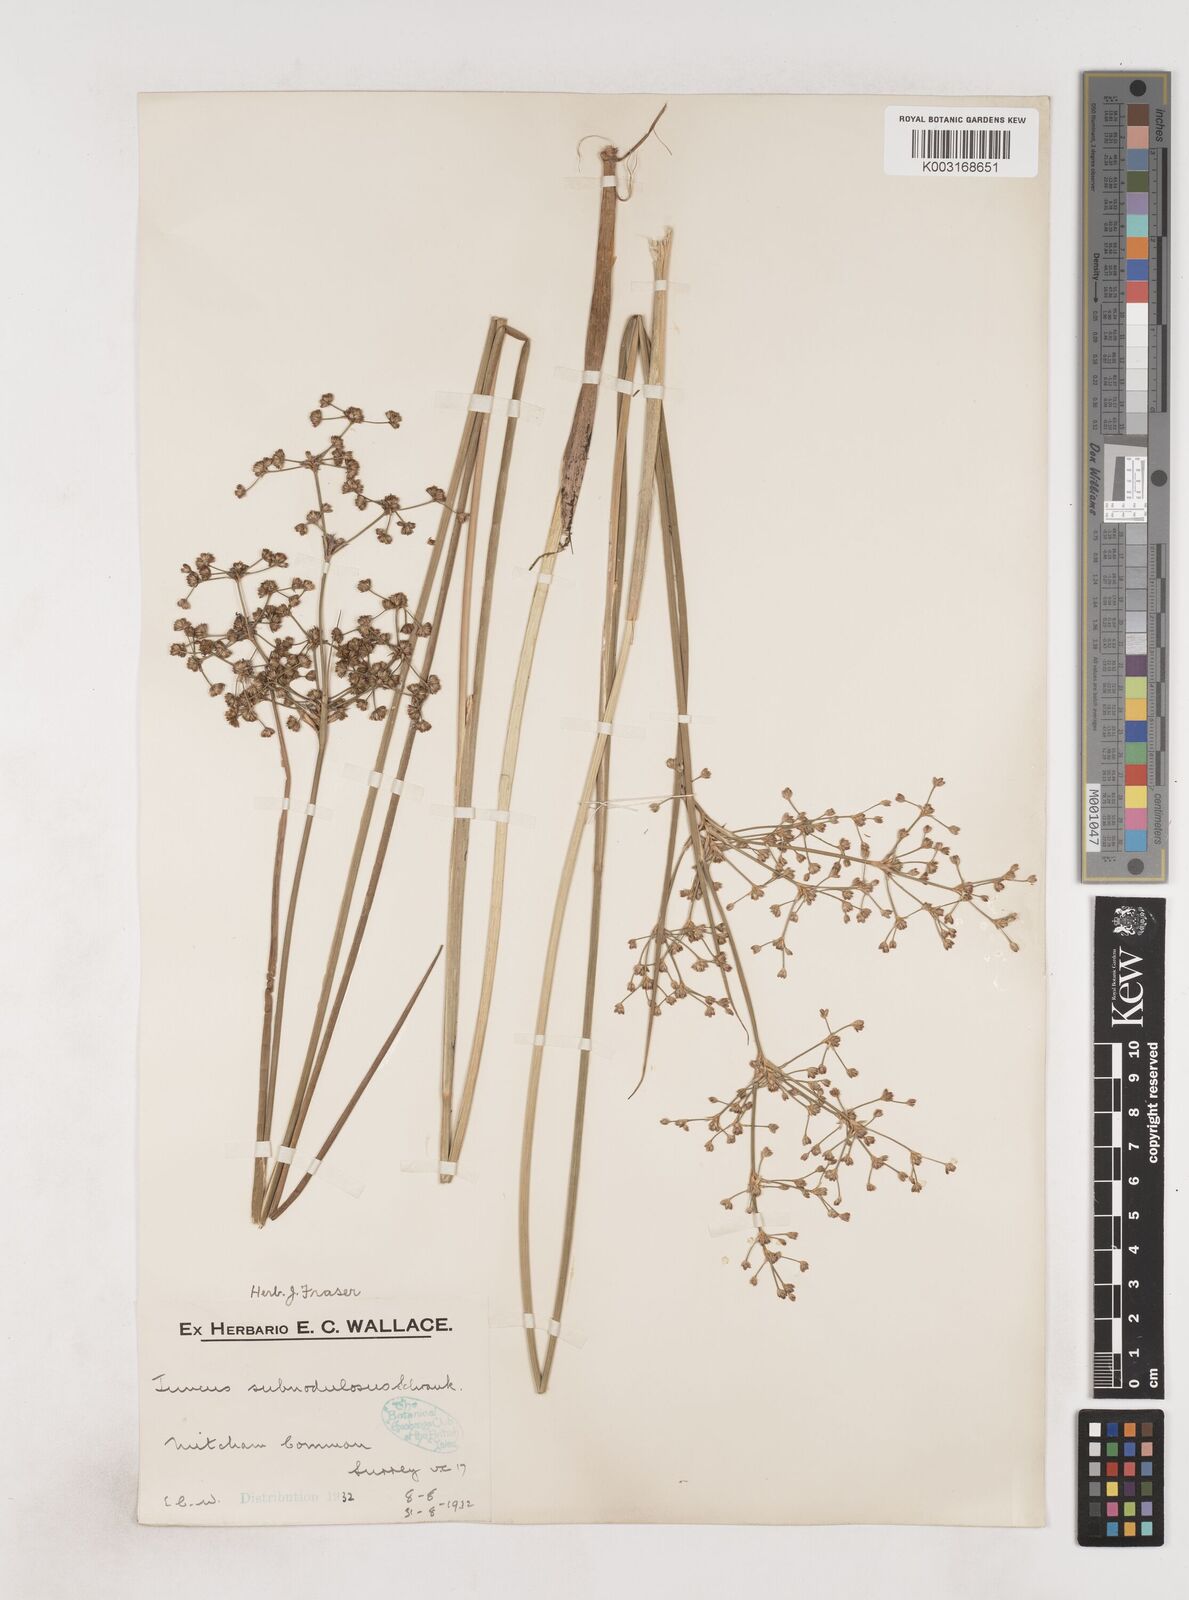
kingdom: Plantae
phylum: Tracheophyta
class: Liliopsida
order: Poales
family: Juncaceae
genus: Juncus
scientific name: Juncus subnodulosus
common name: Blunt-flowered rush
